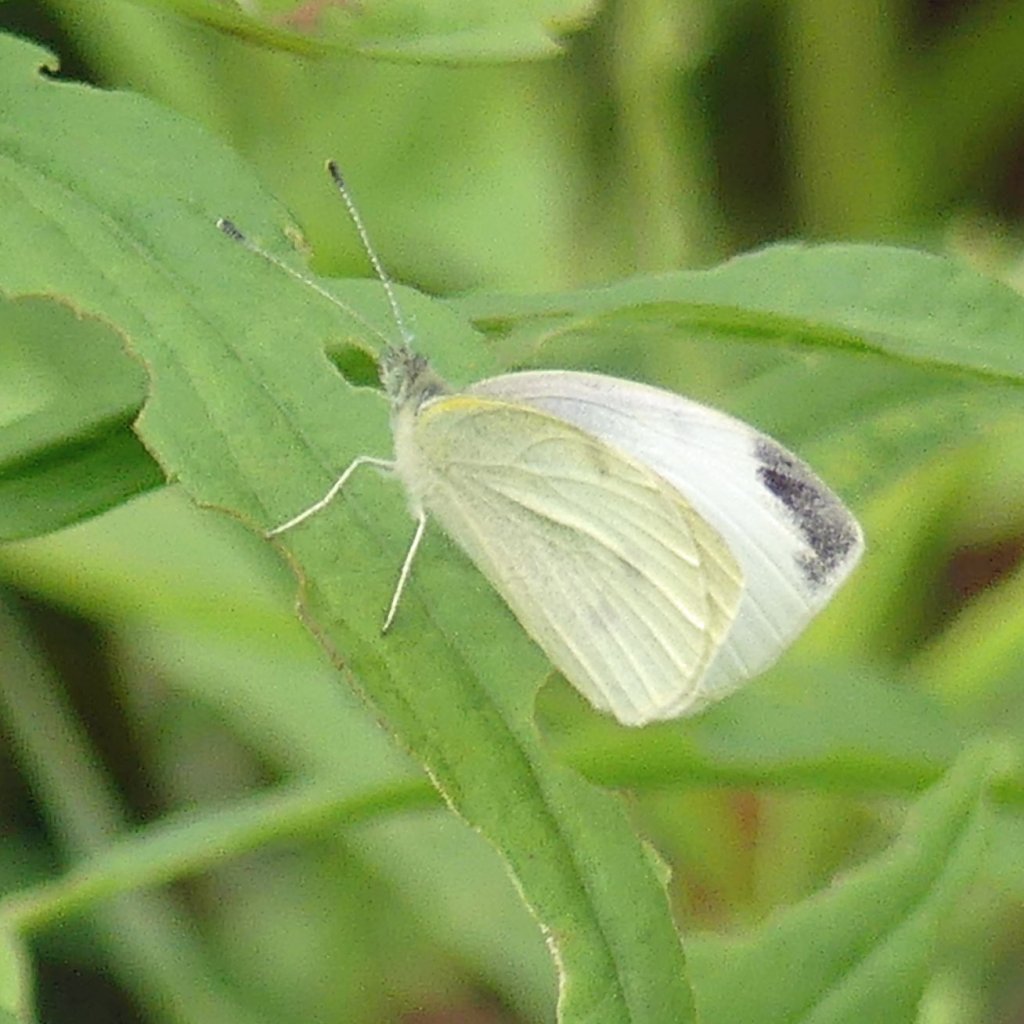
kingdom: Animalia
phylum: Arthropoda
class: Insecta
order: Lepidoptera
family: Pieridae
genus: Pieris
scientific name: Pieris rapae
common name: Cabbage White
